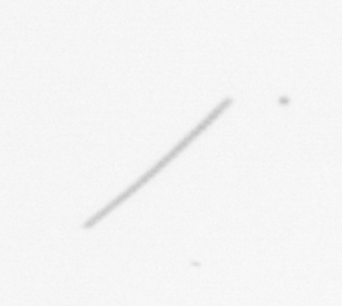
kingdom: Chromista
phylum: Ochrophyta
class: Bacillariophyceae
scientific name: Bacillariophyceae
